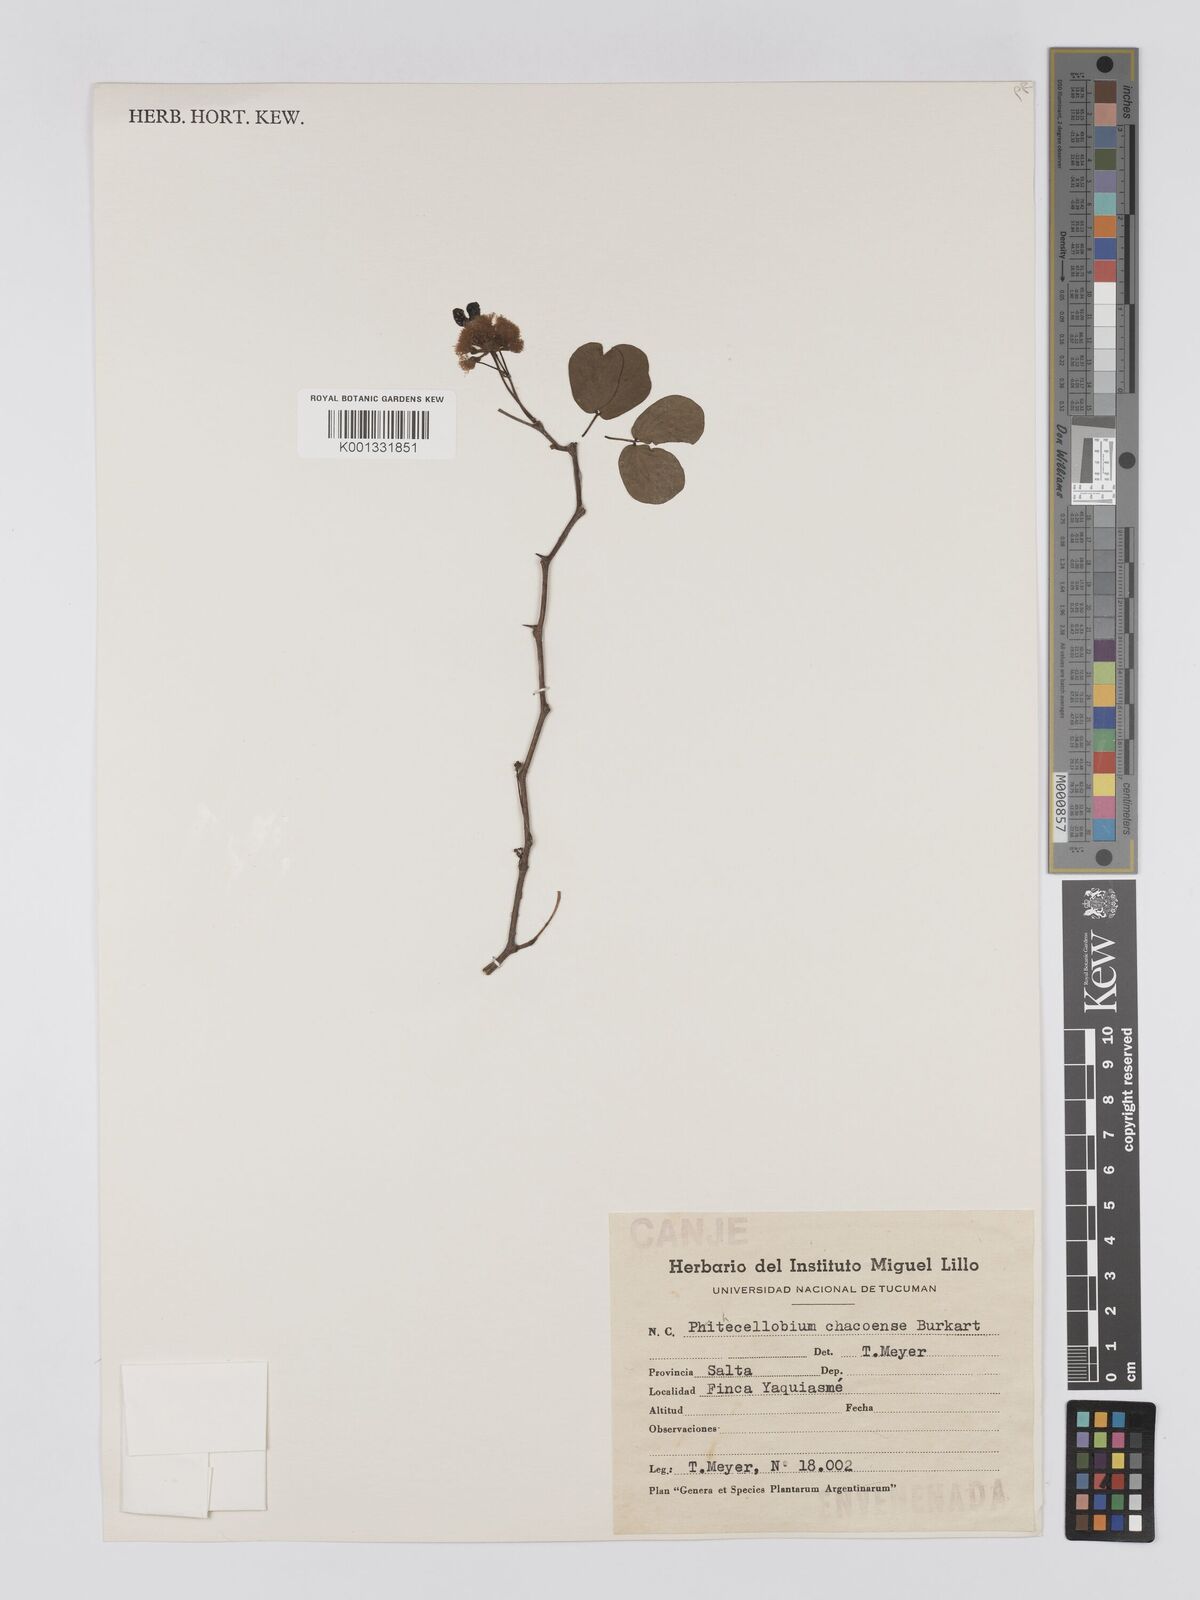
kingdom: Plantae
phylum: Tracheophyta
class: Magnoliopsida
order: Fabales
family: Fabaceae
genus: Chloroleucon
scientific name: Chloroleucon chacoense
